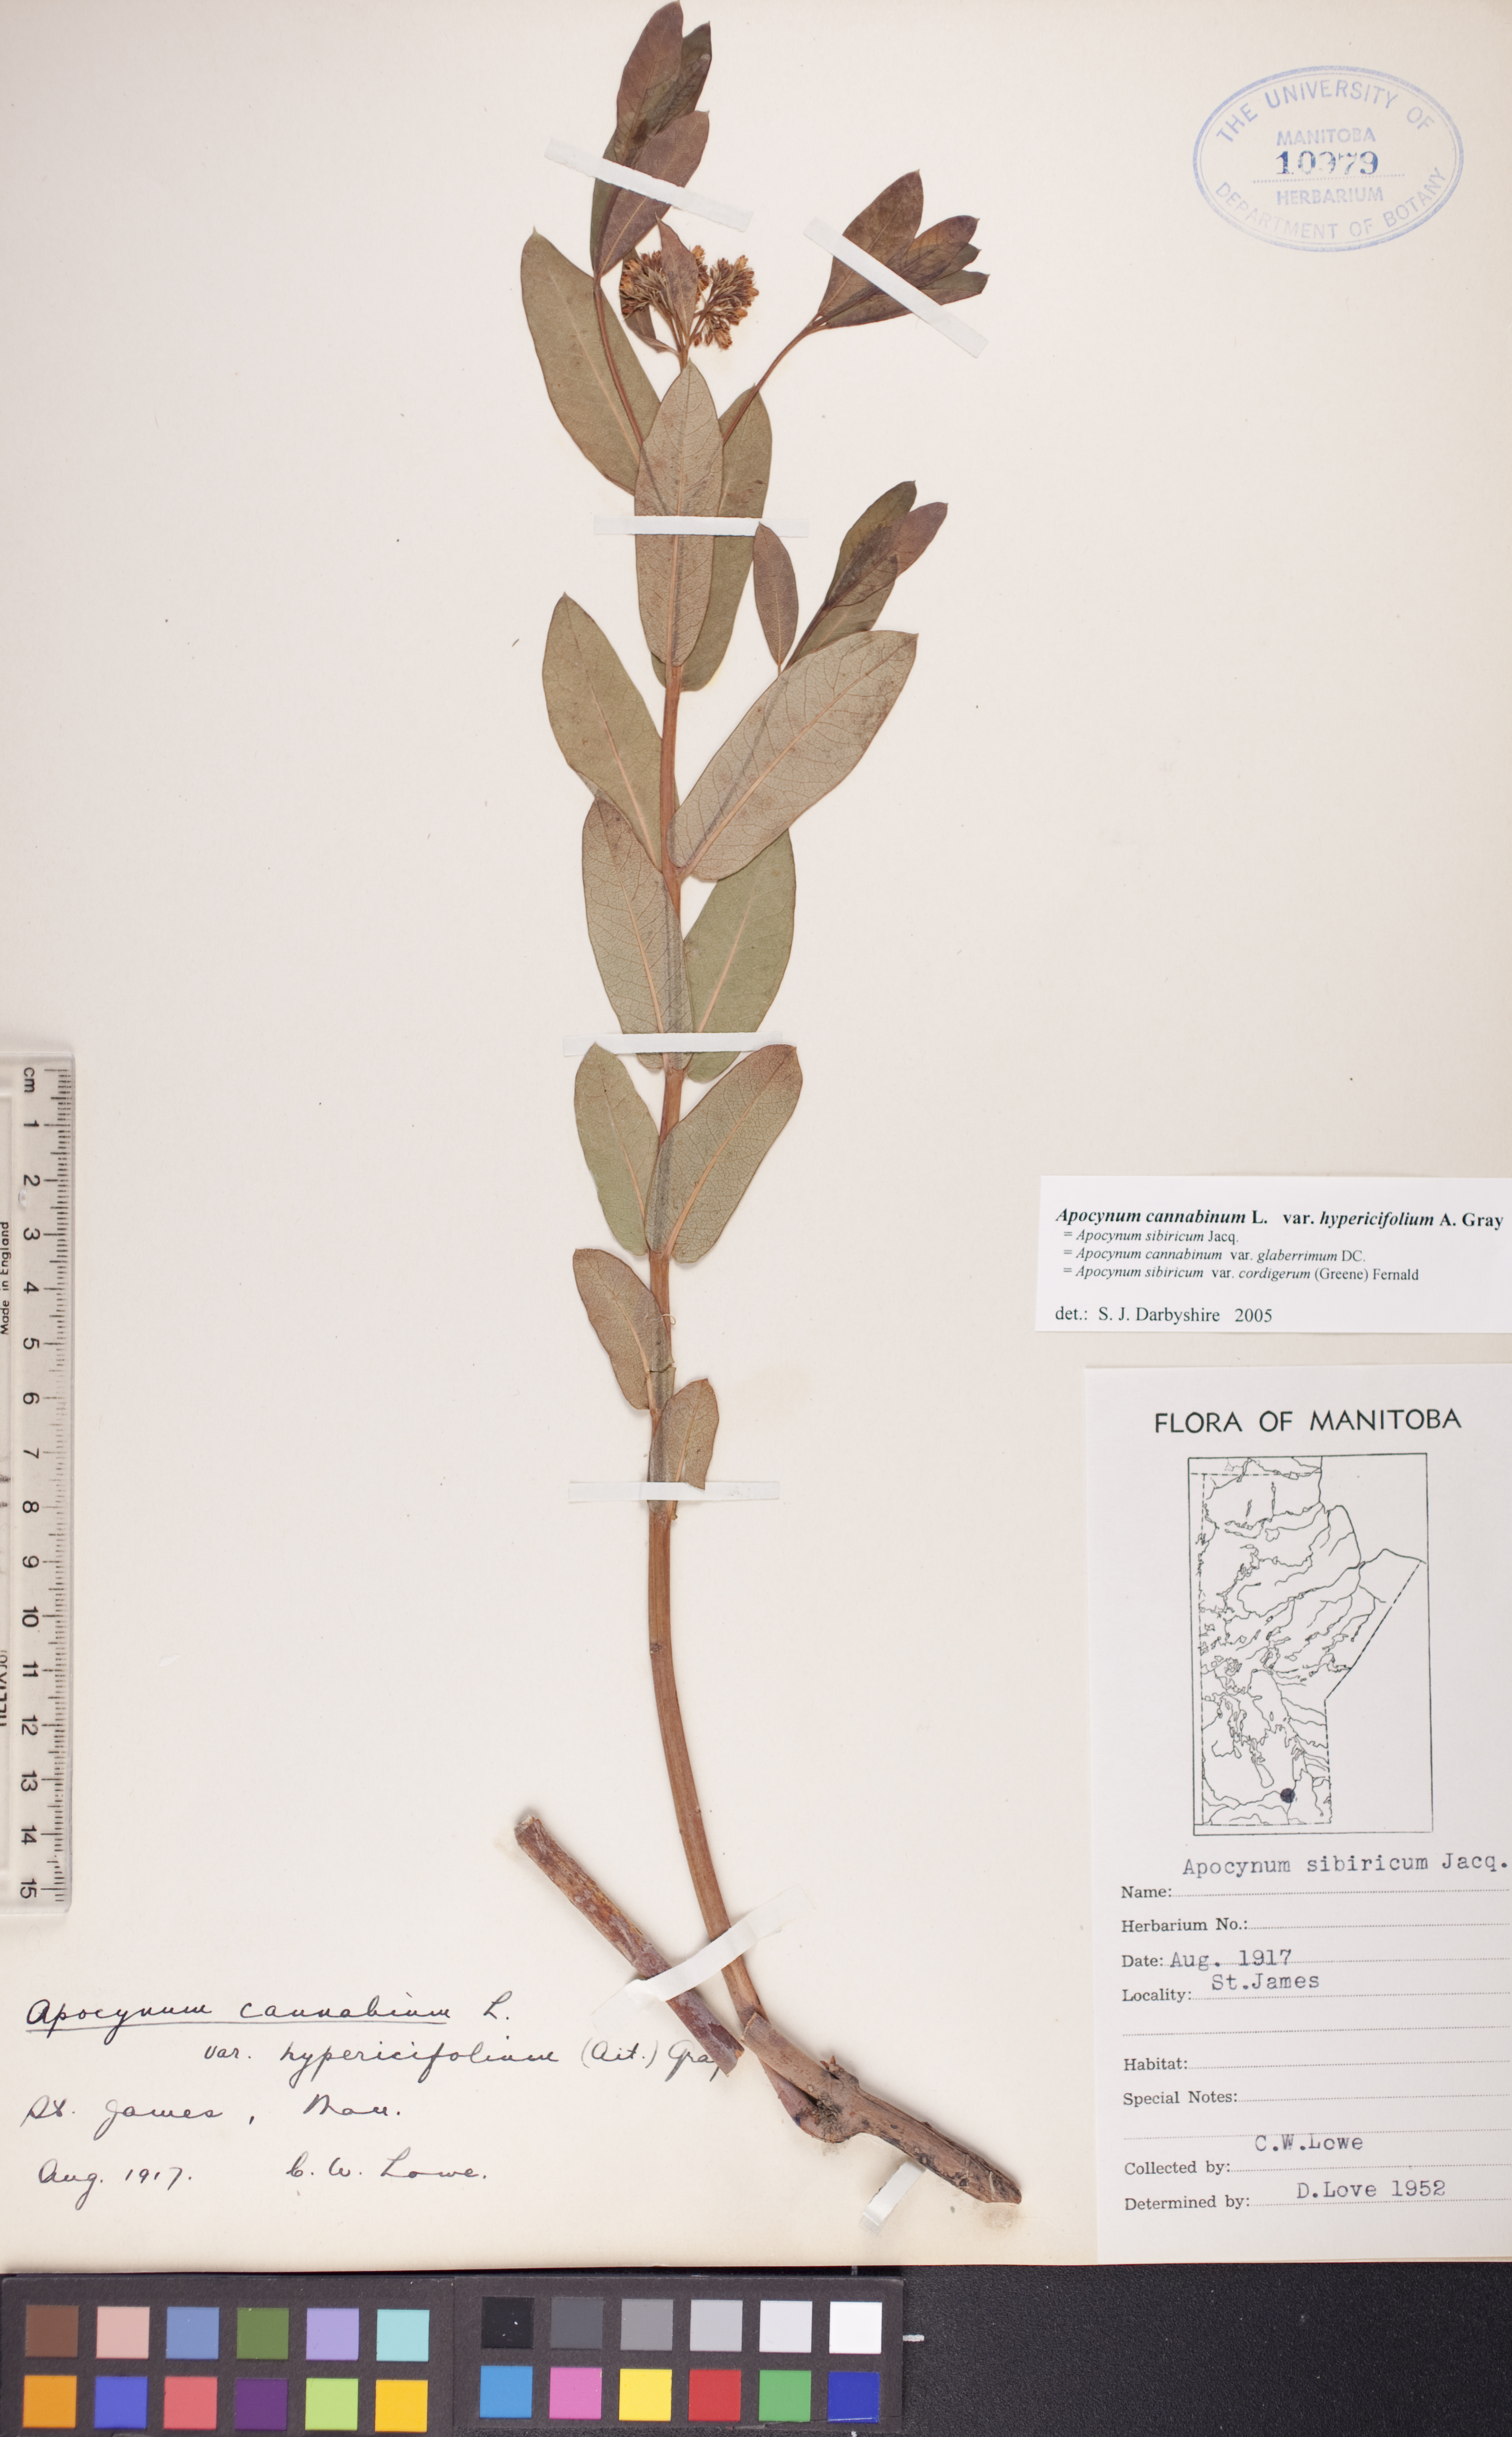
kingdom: Plantae
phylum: Tracheophyta
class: Magnoliopsida
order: Gentianales
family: Apocynaceae
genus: Apocynum
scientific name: Apocynum cannabinum
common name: Hemp dogbane
